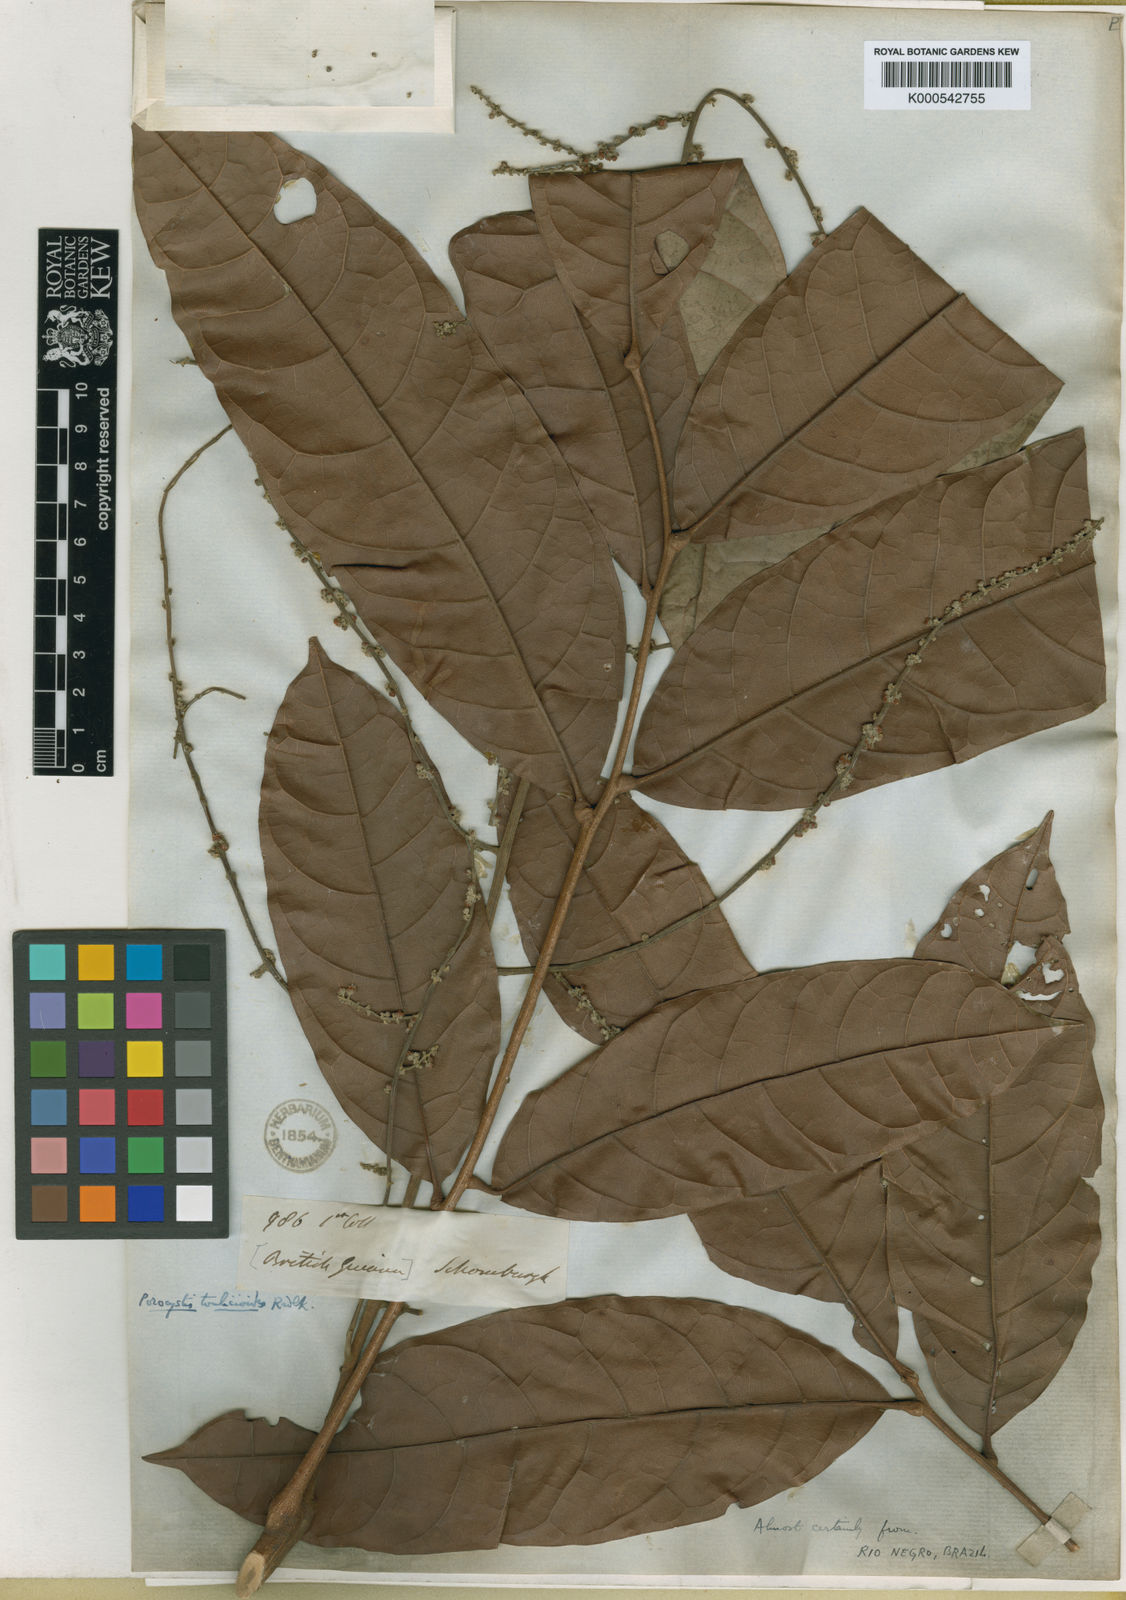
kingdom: Plantae
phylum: Tracheophyta
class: Magnoliopsida
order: Sapindales
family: Sapindaceae
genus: Porocystis
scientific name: Porocystis toulicioides
